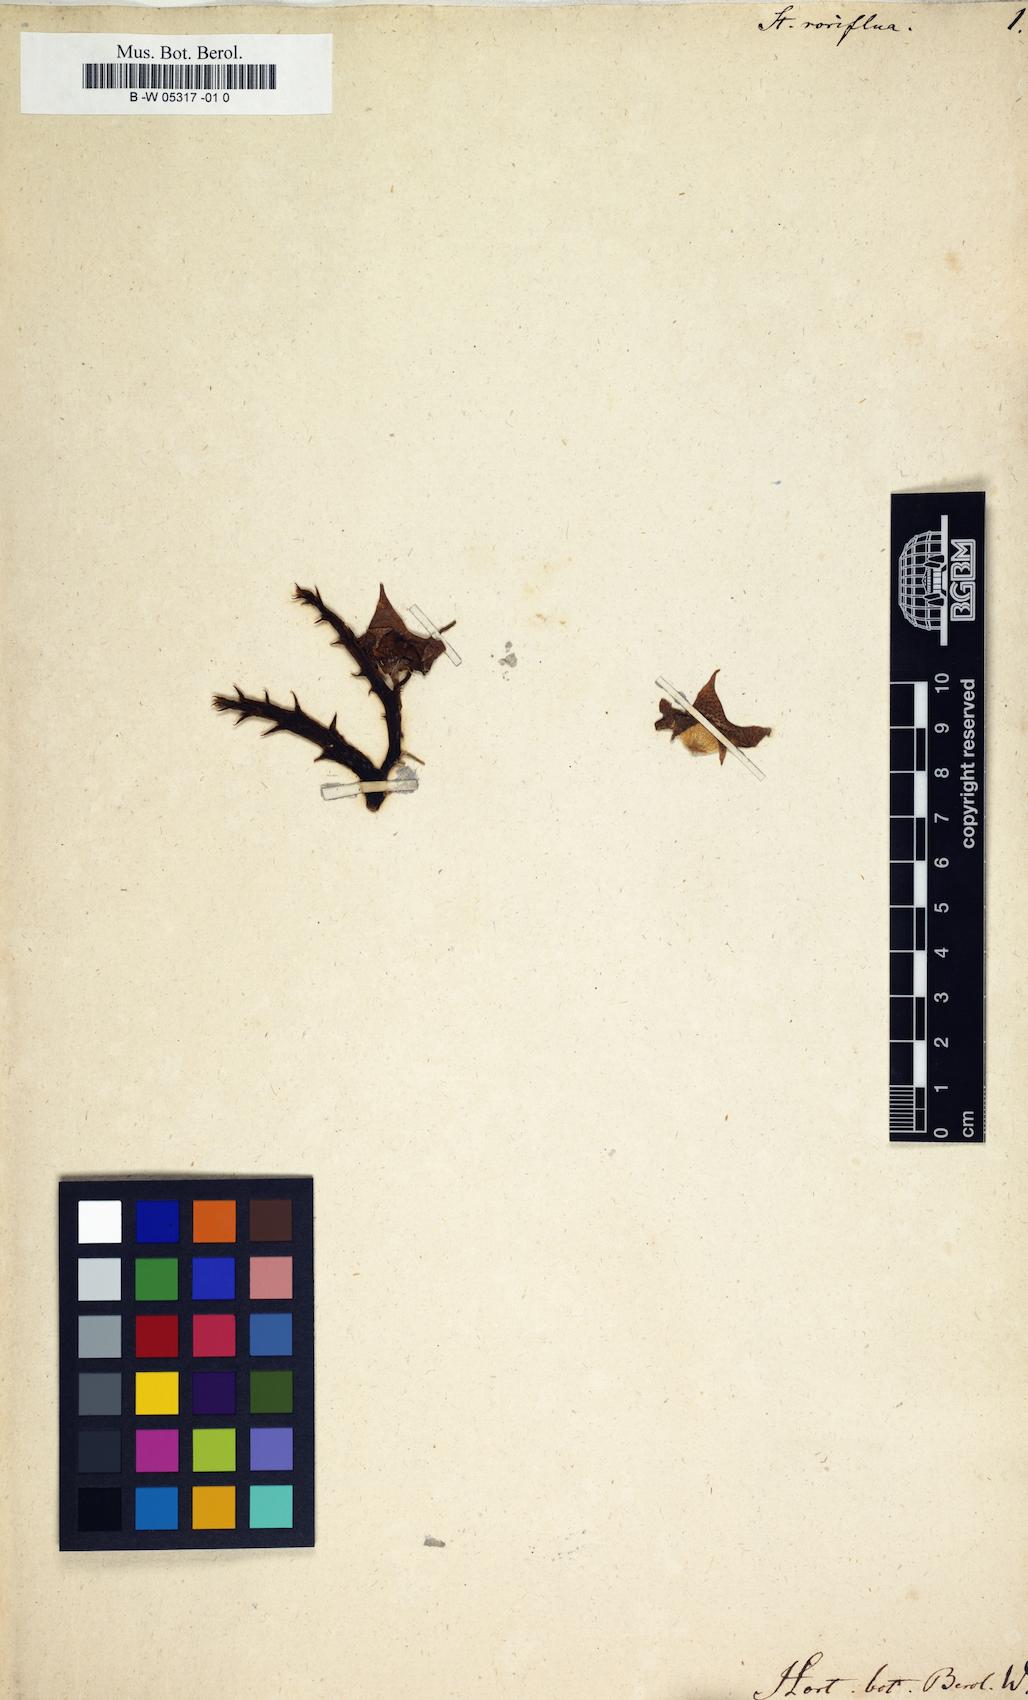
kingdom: Plantae
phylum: Tracheophyta
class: Magnoliopsida
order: Gentianales
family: Apocynaceae
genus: Ceropegia
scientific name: Ceropegia irrorata
